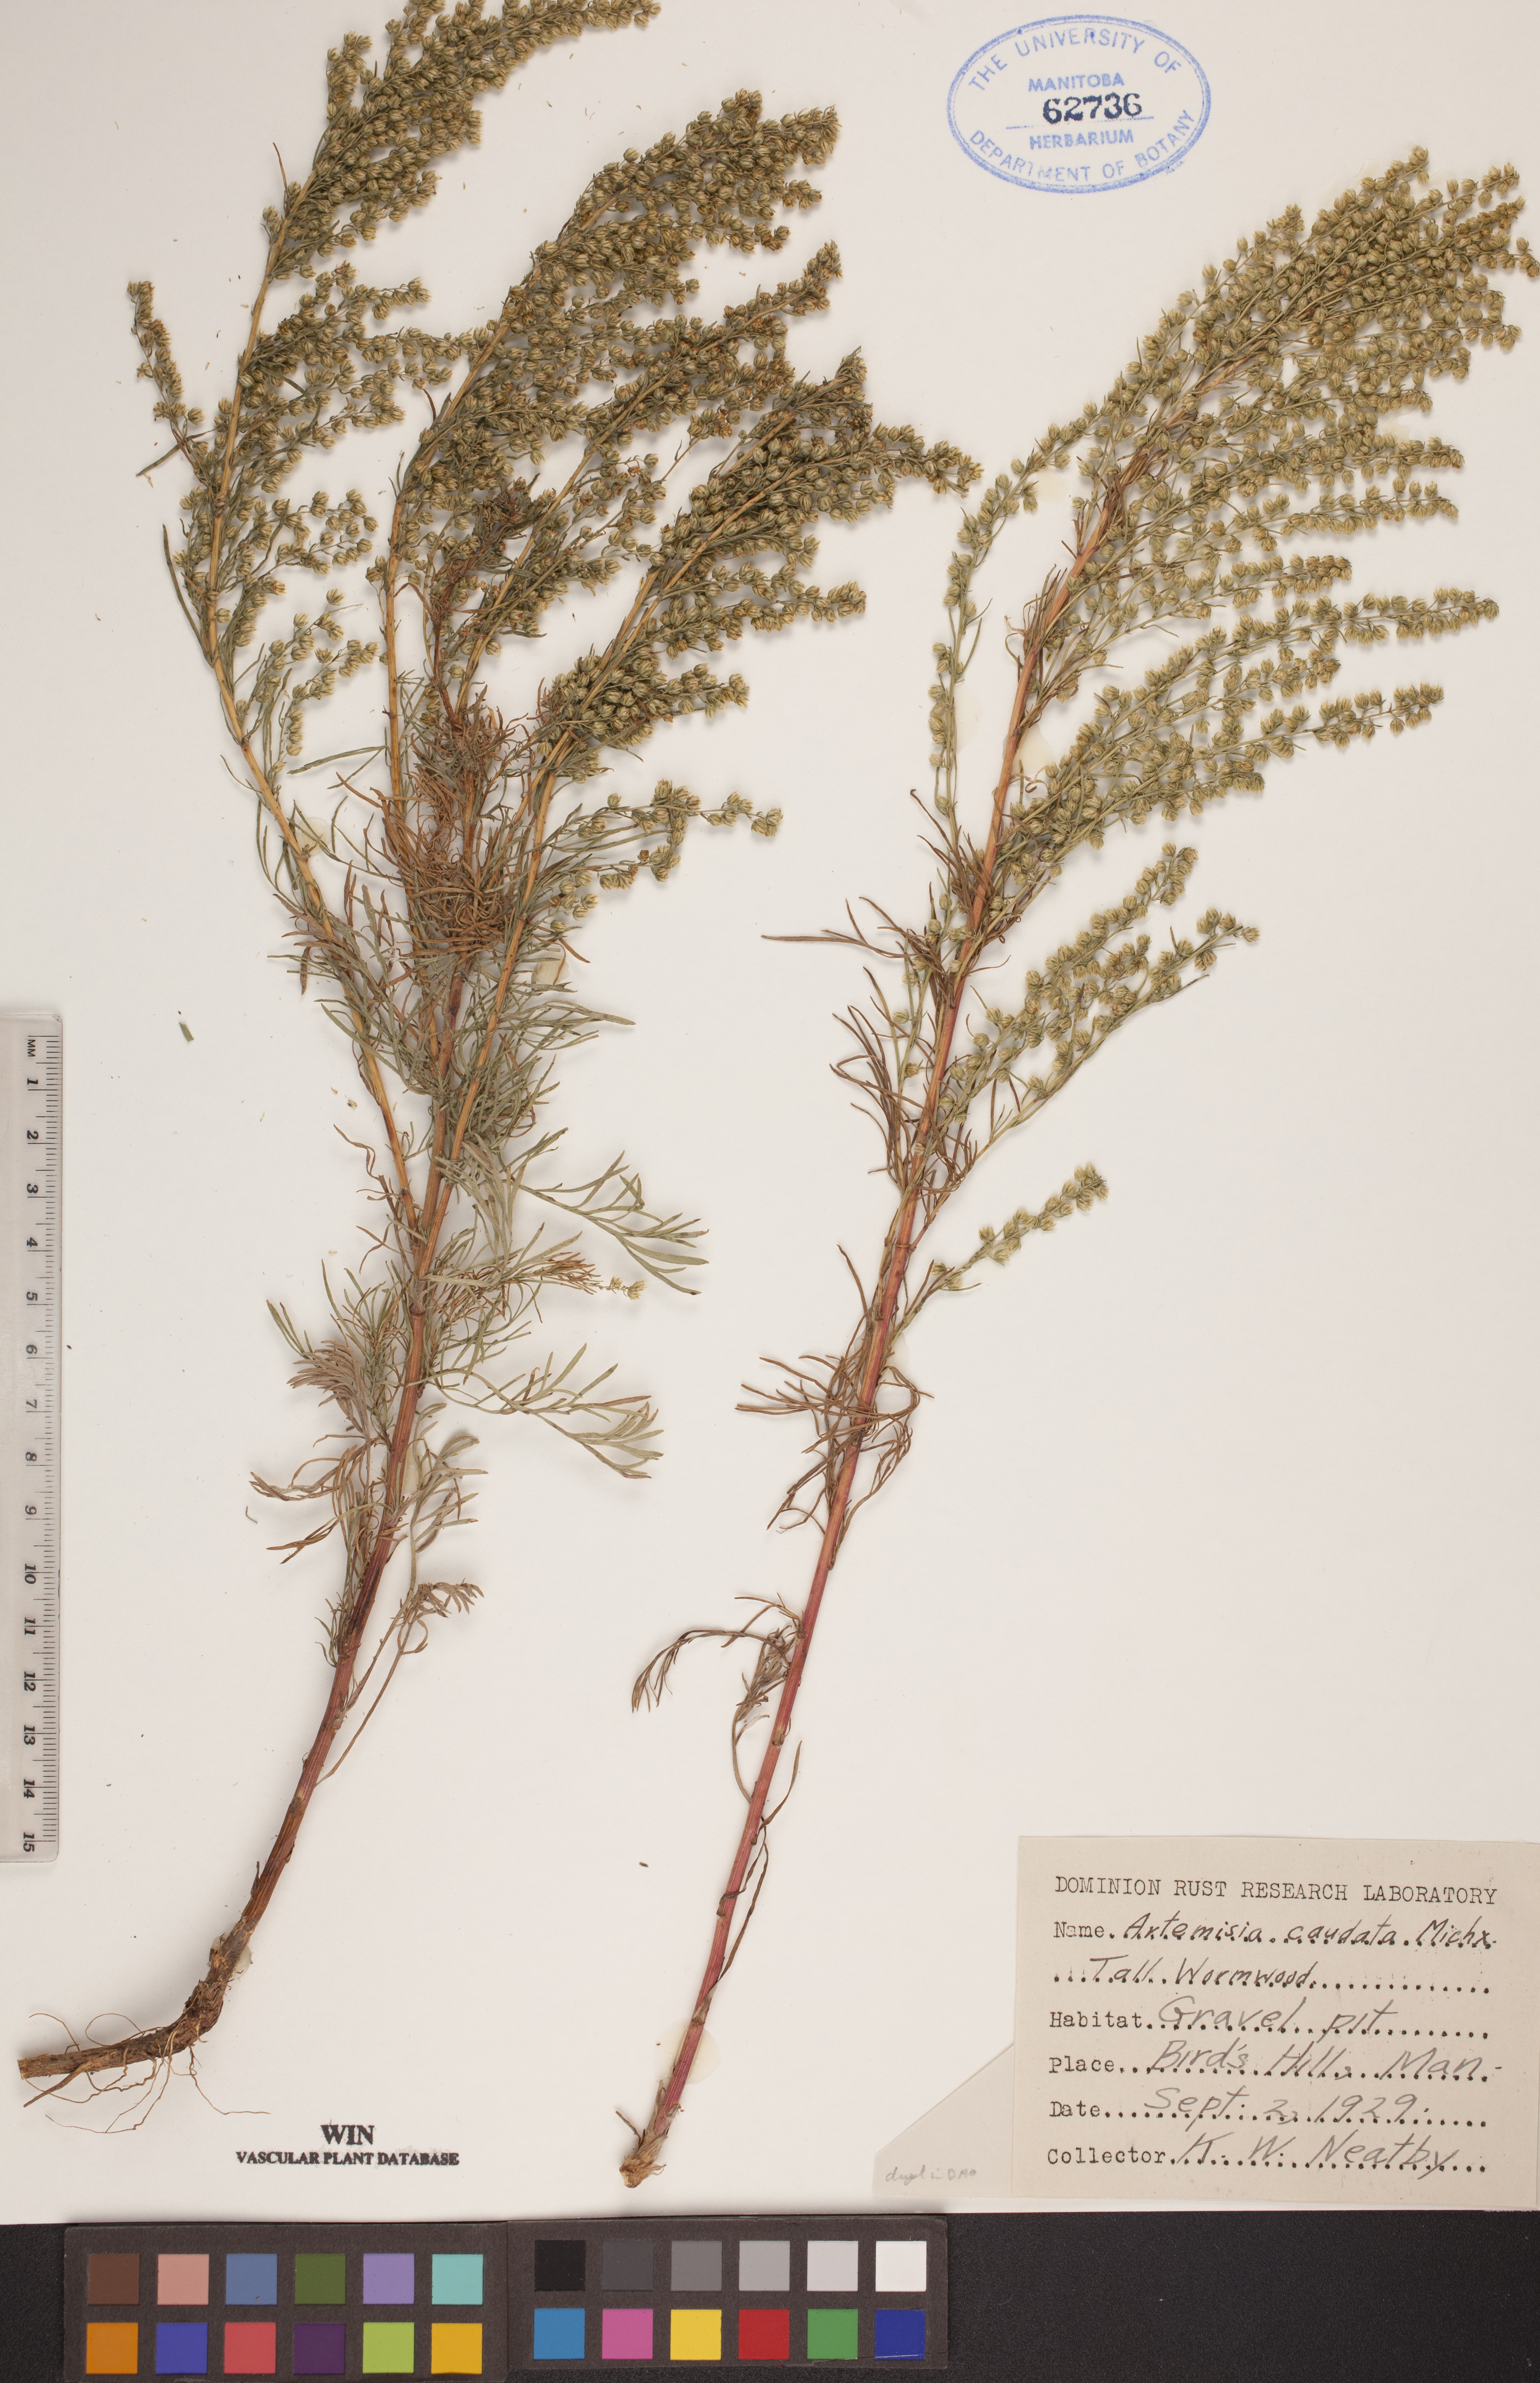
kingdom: Plantae
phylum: Tracheophyta
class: Magnoliopsida
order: Asterales
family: Asteraceae
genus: Artemisia
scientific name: Artemisia campestris
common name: Field wormwood
